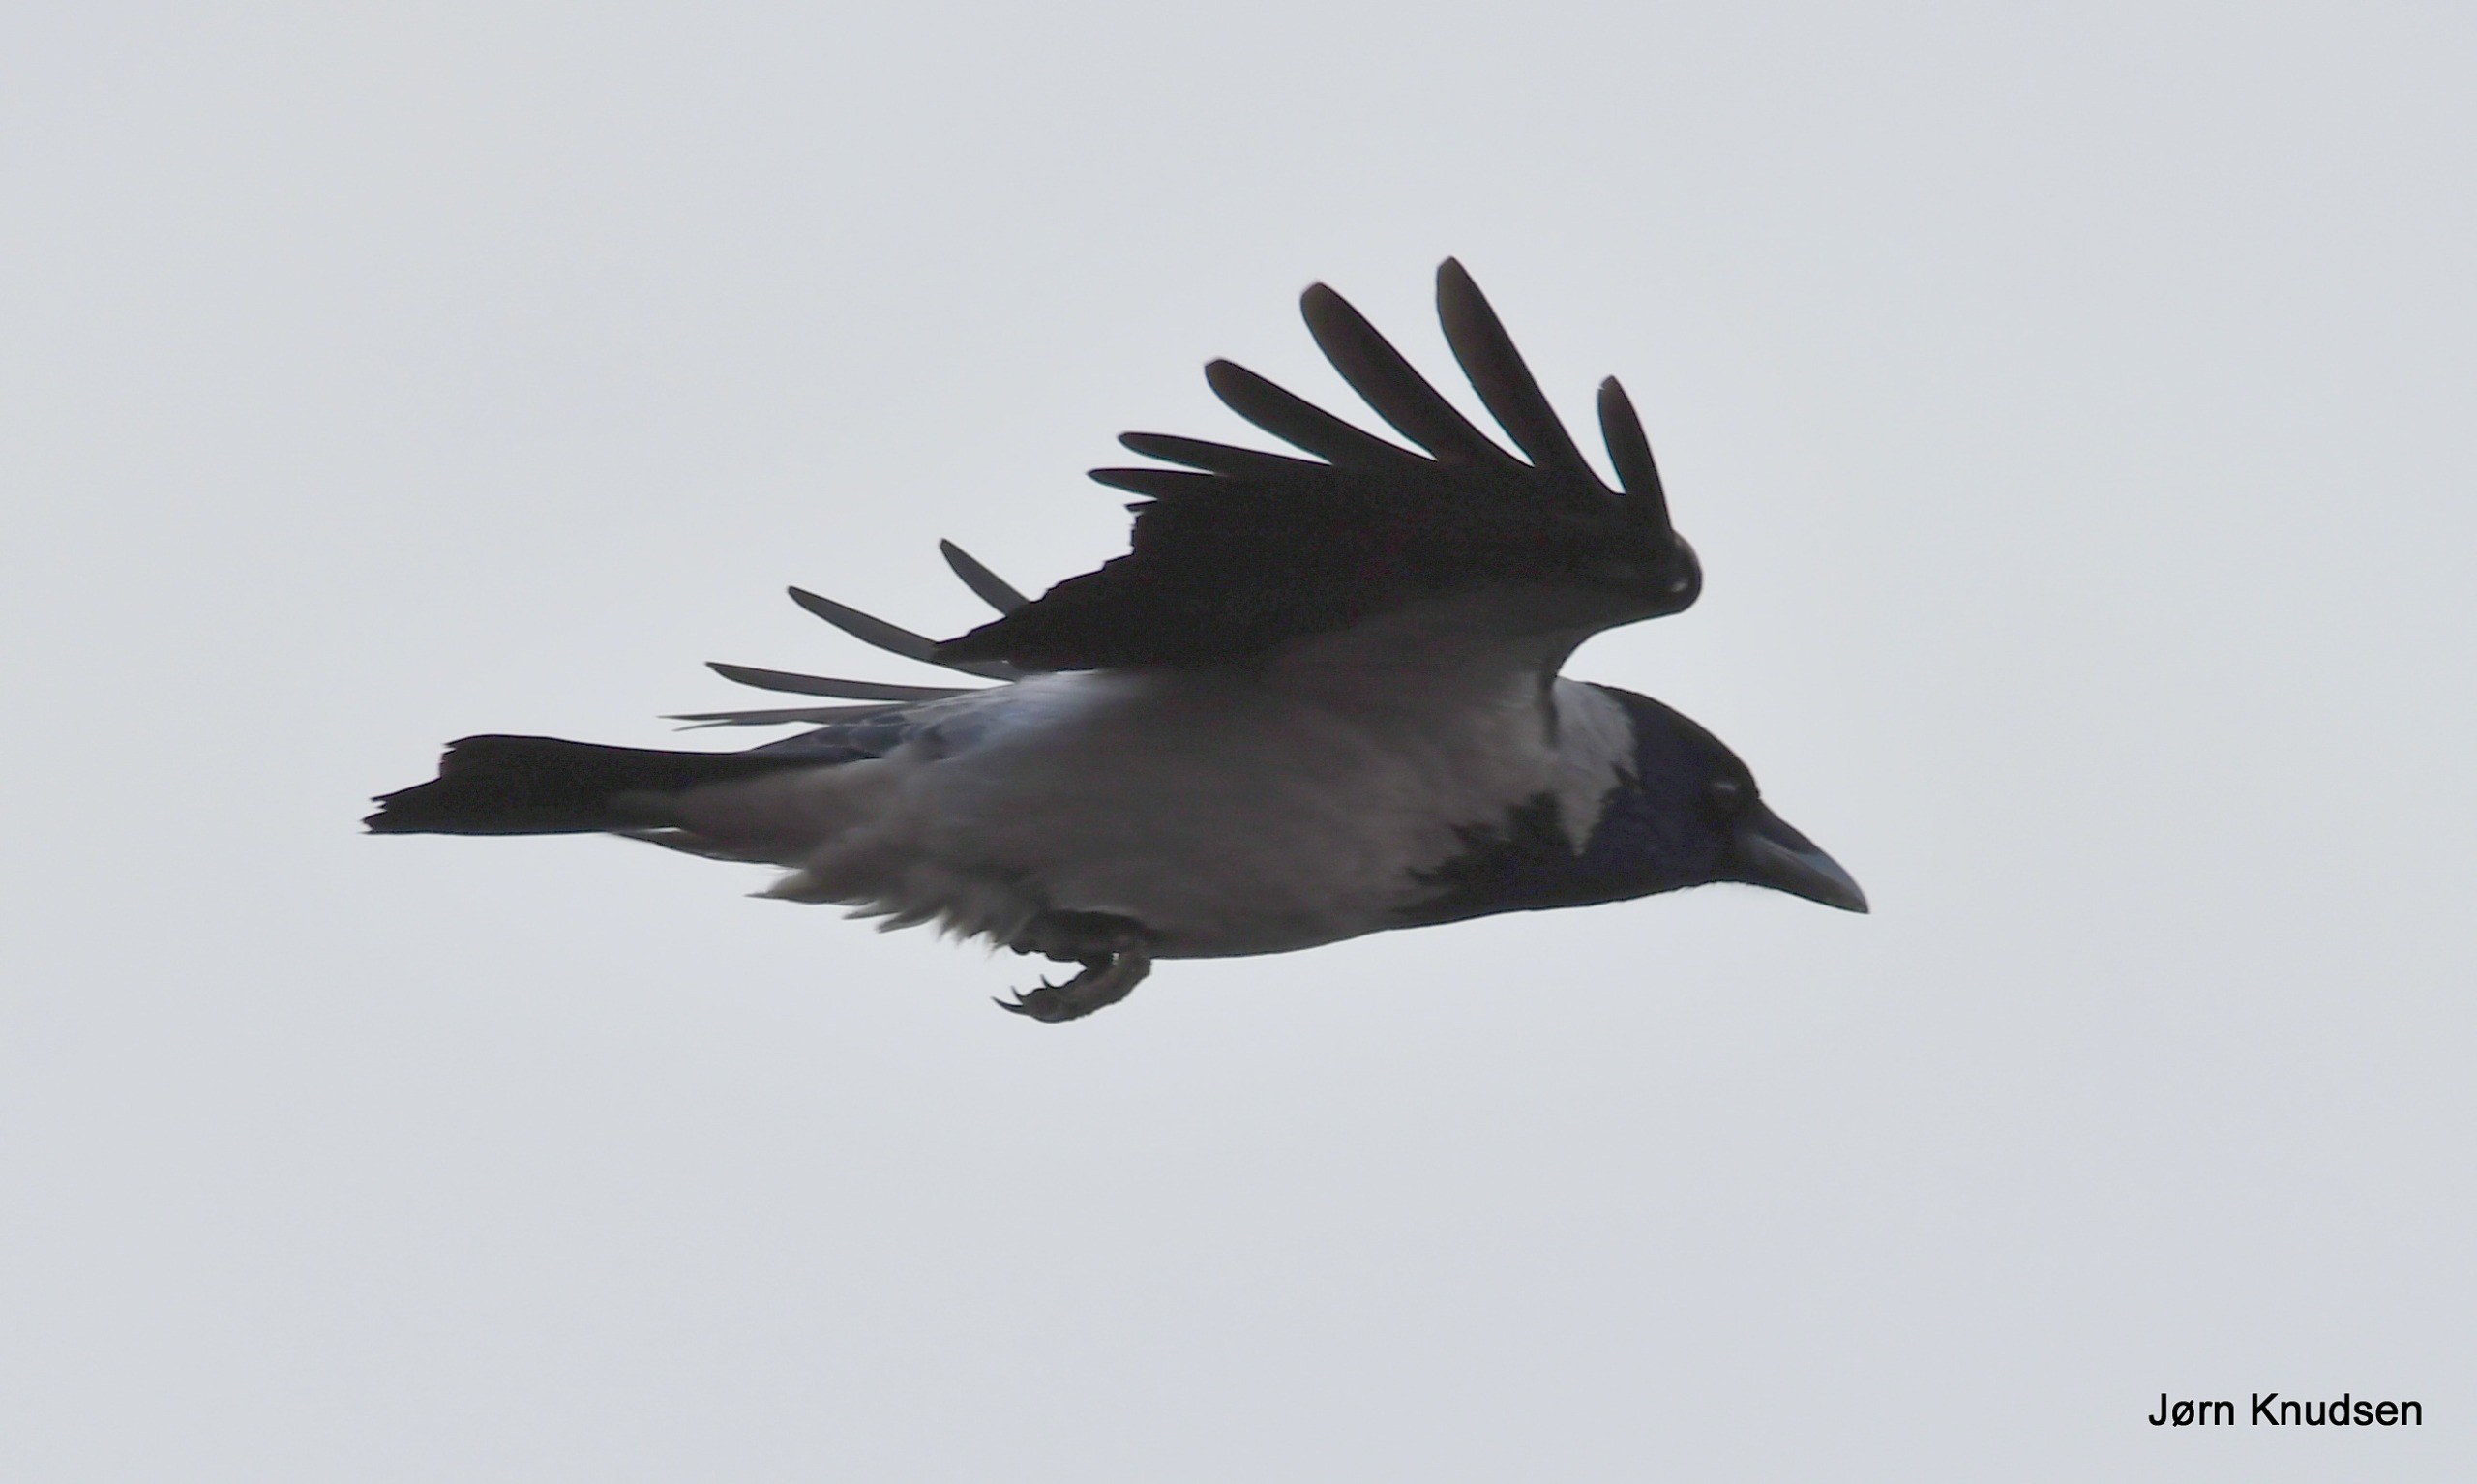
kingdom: Animalia
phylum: Chordata
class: Aves
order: Passeriformes
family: Corvidae
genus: Corvus
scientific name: Corvus cornix
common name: Gråkrage
